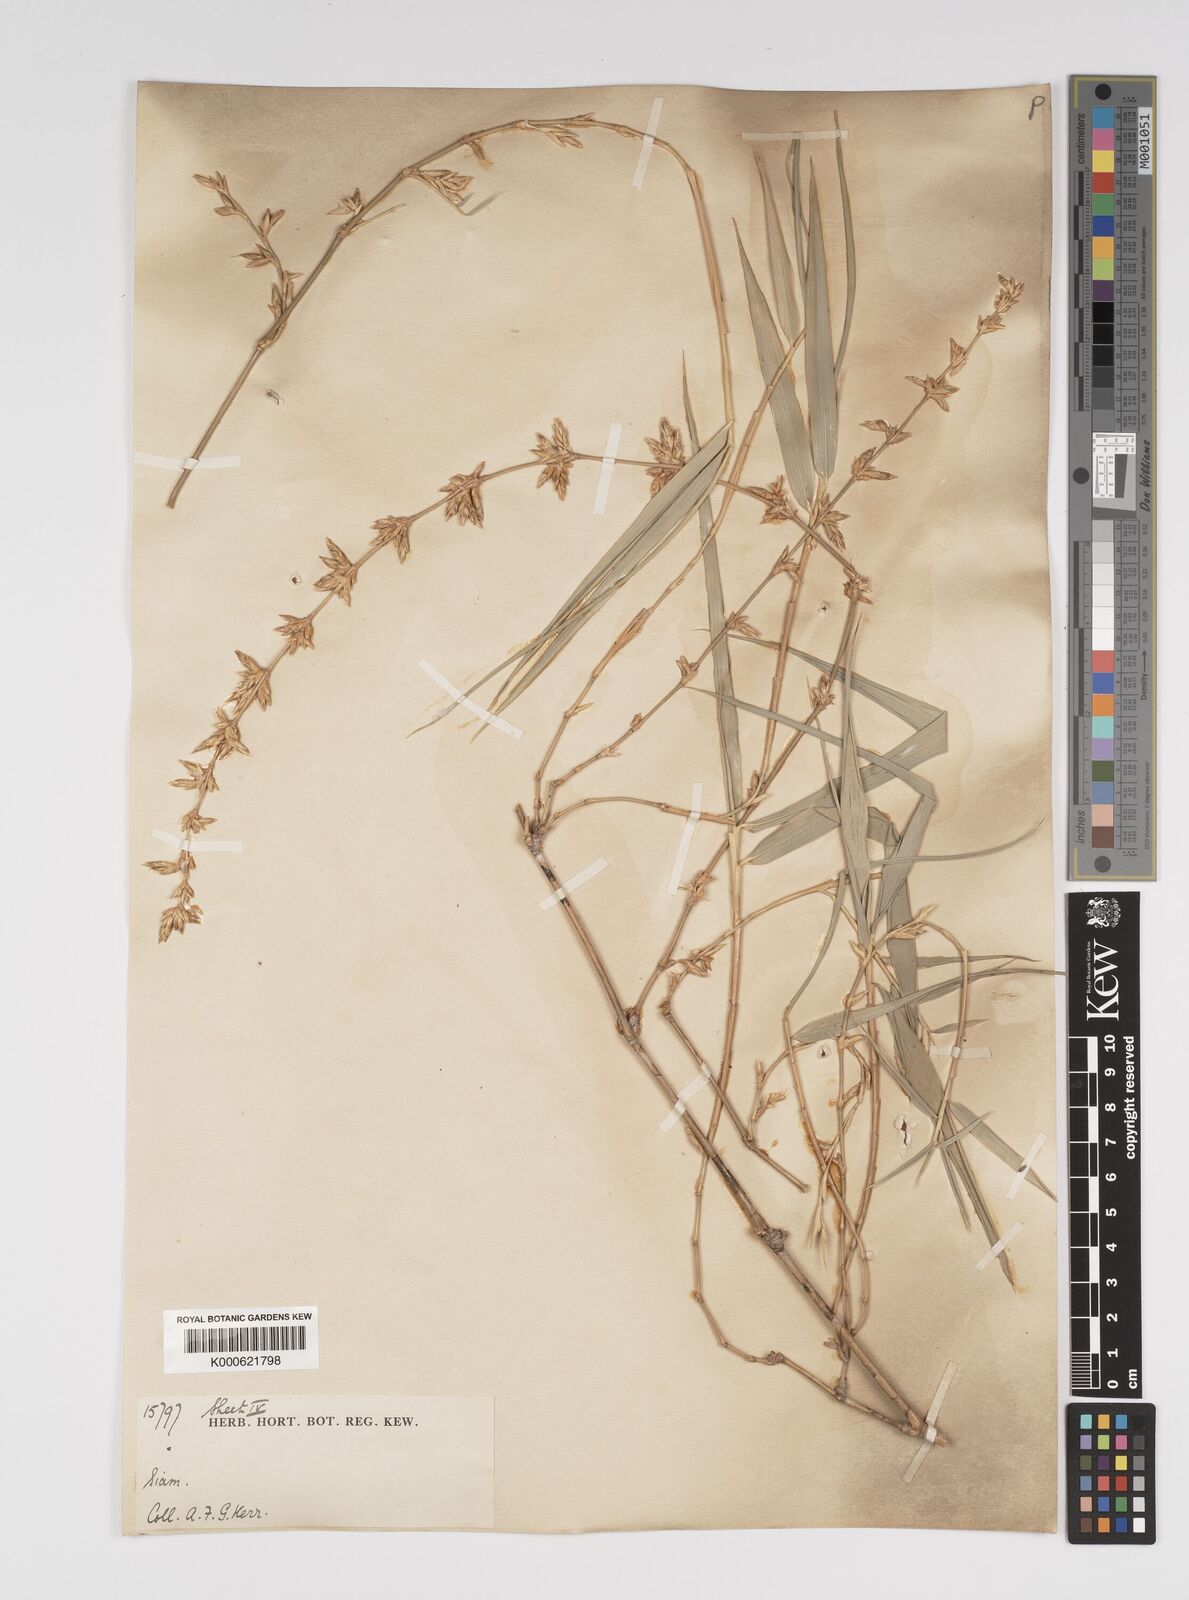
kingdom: Plantae
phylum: Tracheophyta
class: Liliopsida
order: Poales
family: Poaceae
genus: Bambusa
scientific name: Bambusa bambos
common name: Indian thorny bamboo
